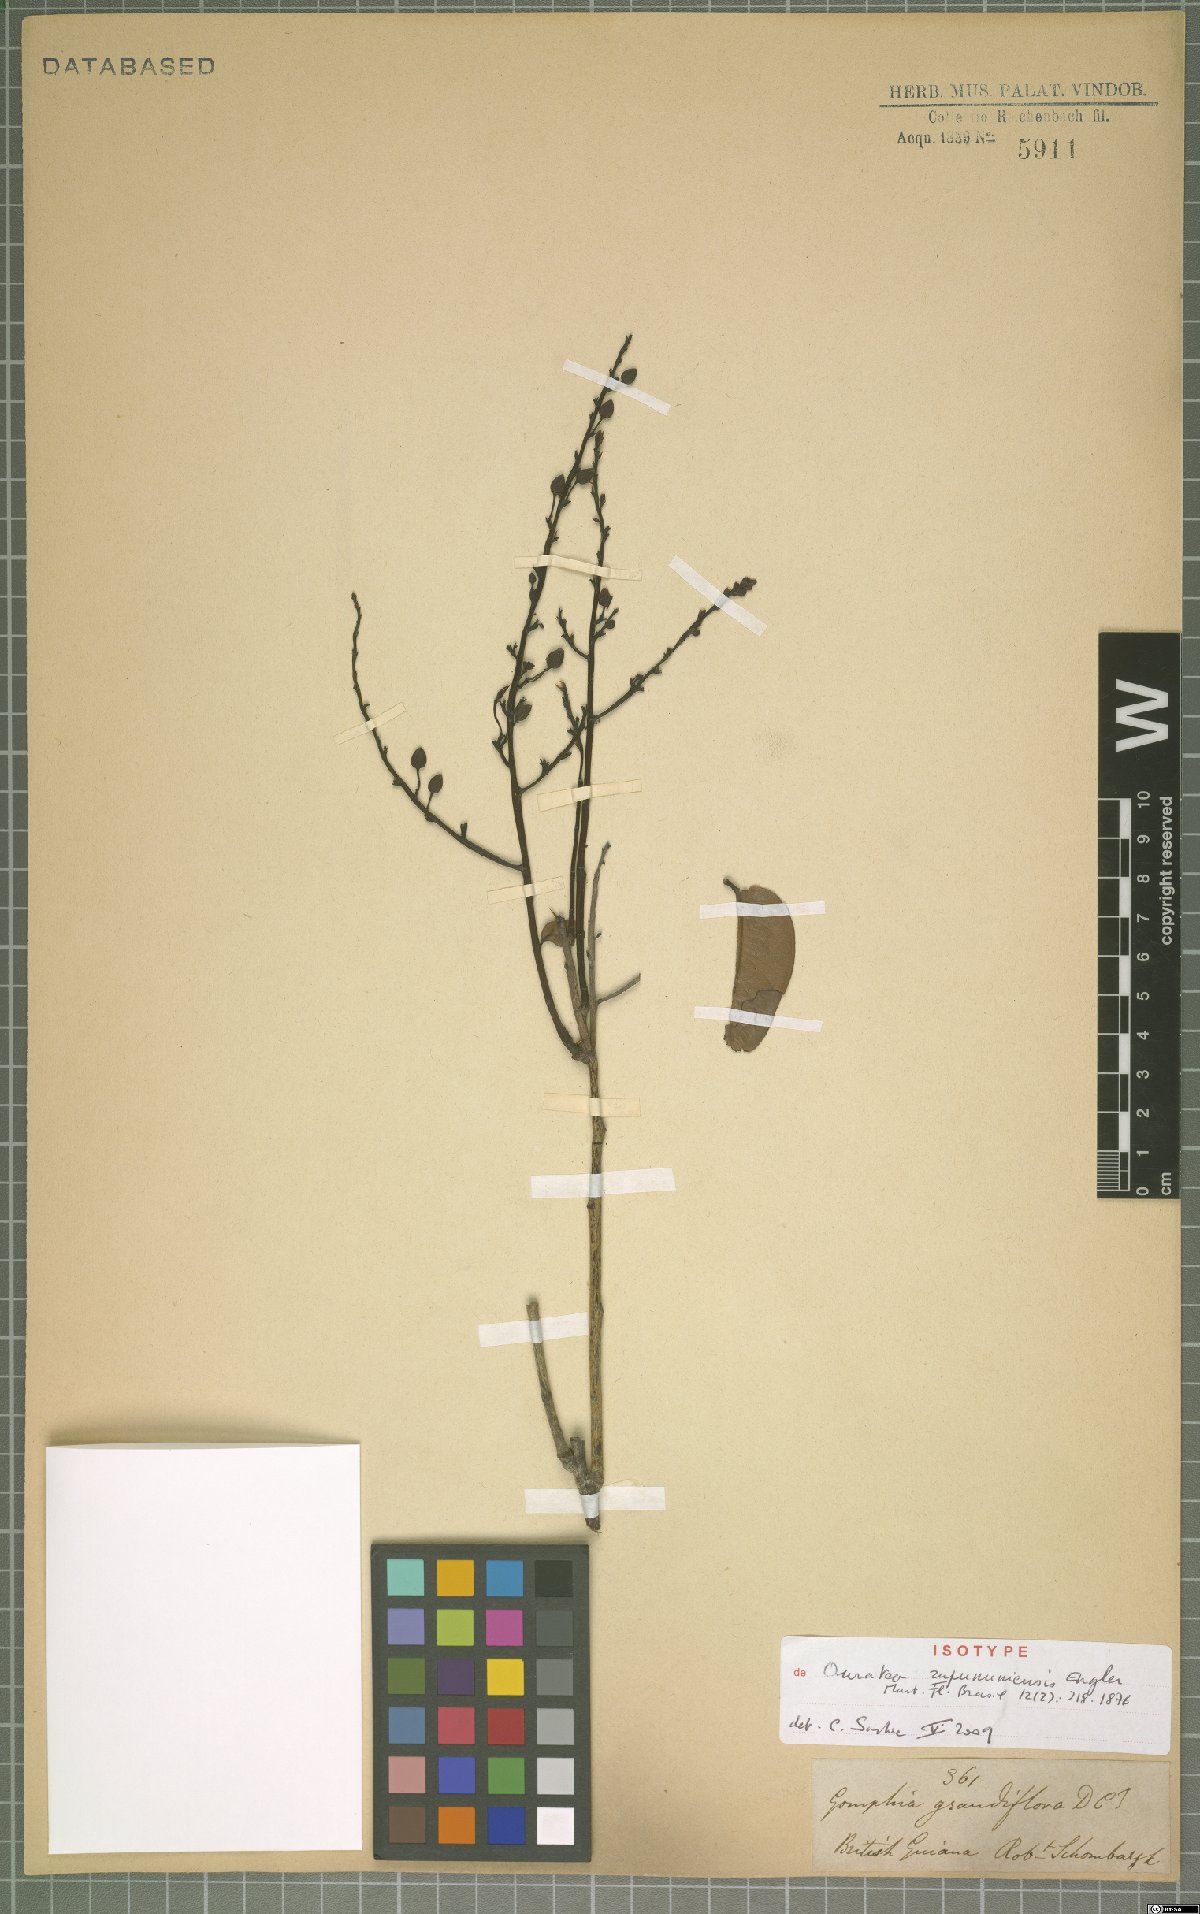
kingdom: Plantae
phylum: Tracheophyta
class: Magnoliopsida
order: Malpighiales
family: Ochnaceae
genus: Ouratea
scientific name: Ouratea rupununiensis
